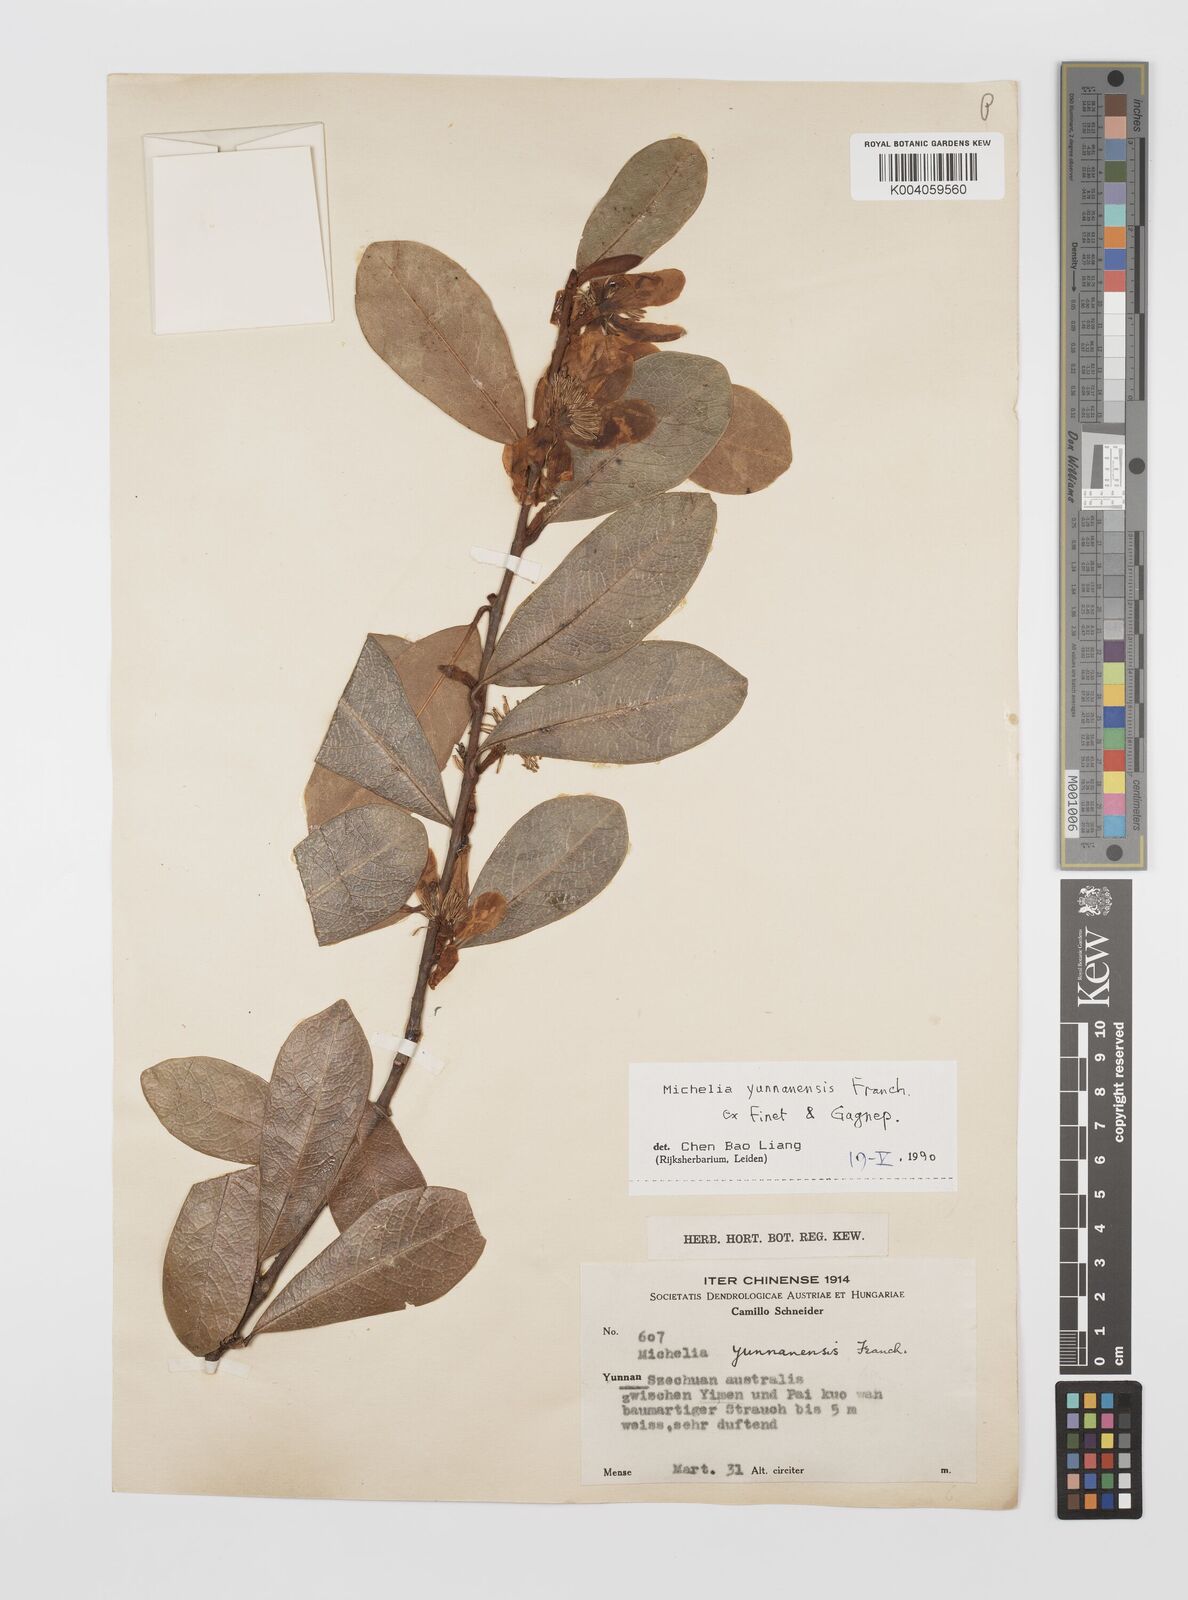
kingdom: Plantae
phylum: Tracheophyta
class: Magnoliopsida
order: Magnoliales
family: Magnoliaceae
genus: Magnolia
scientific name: Magnolia laevifolia
